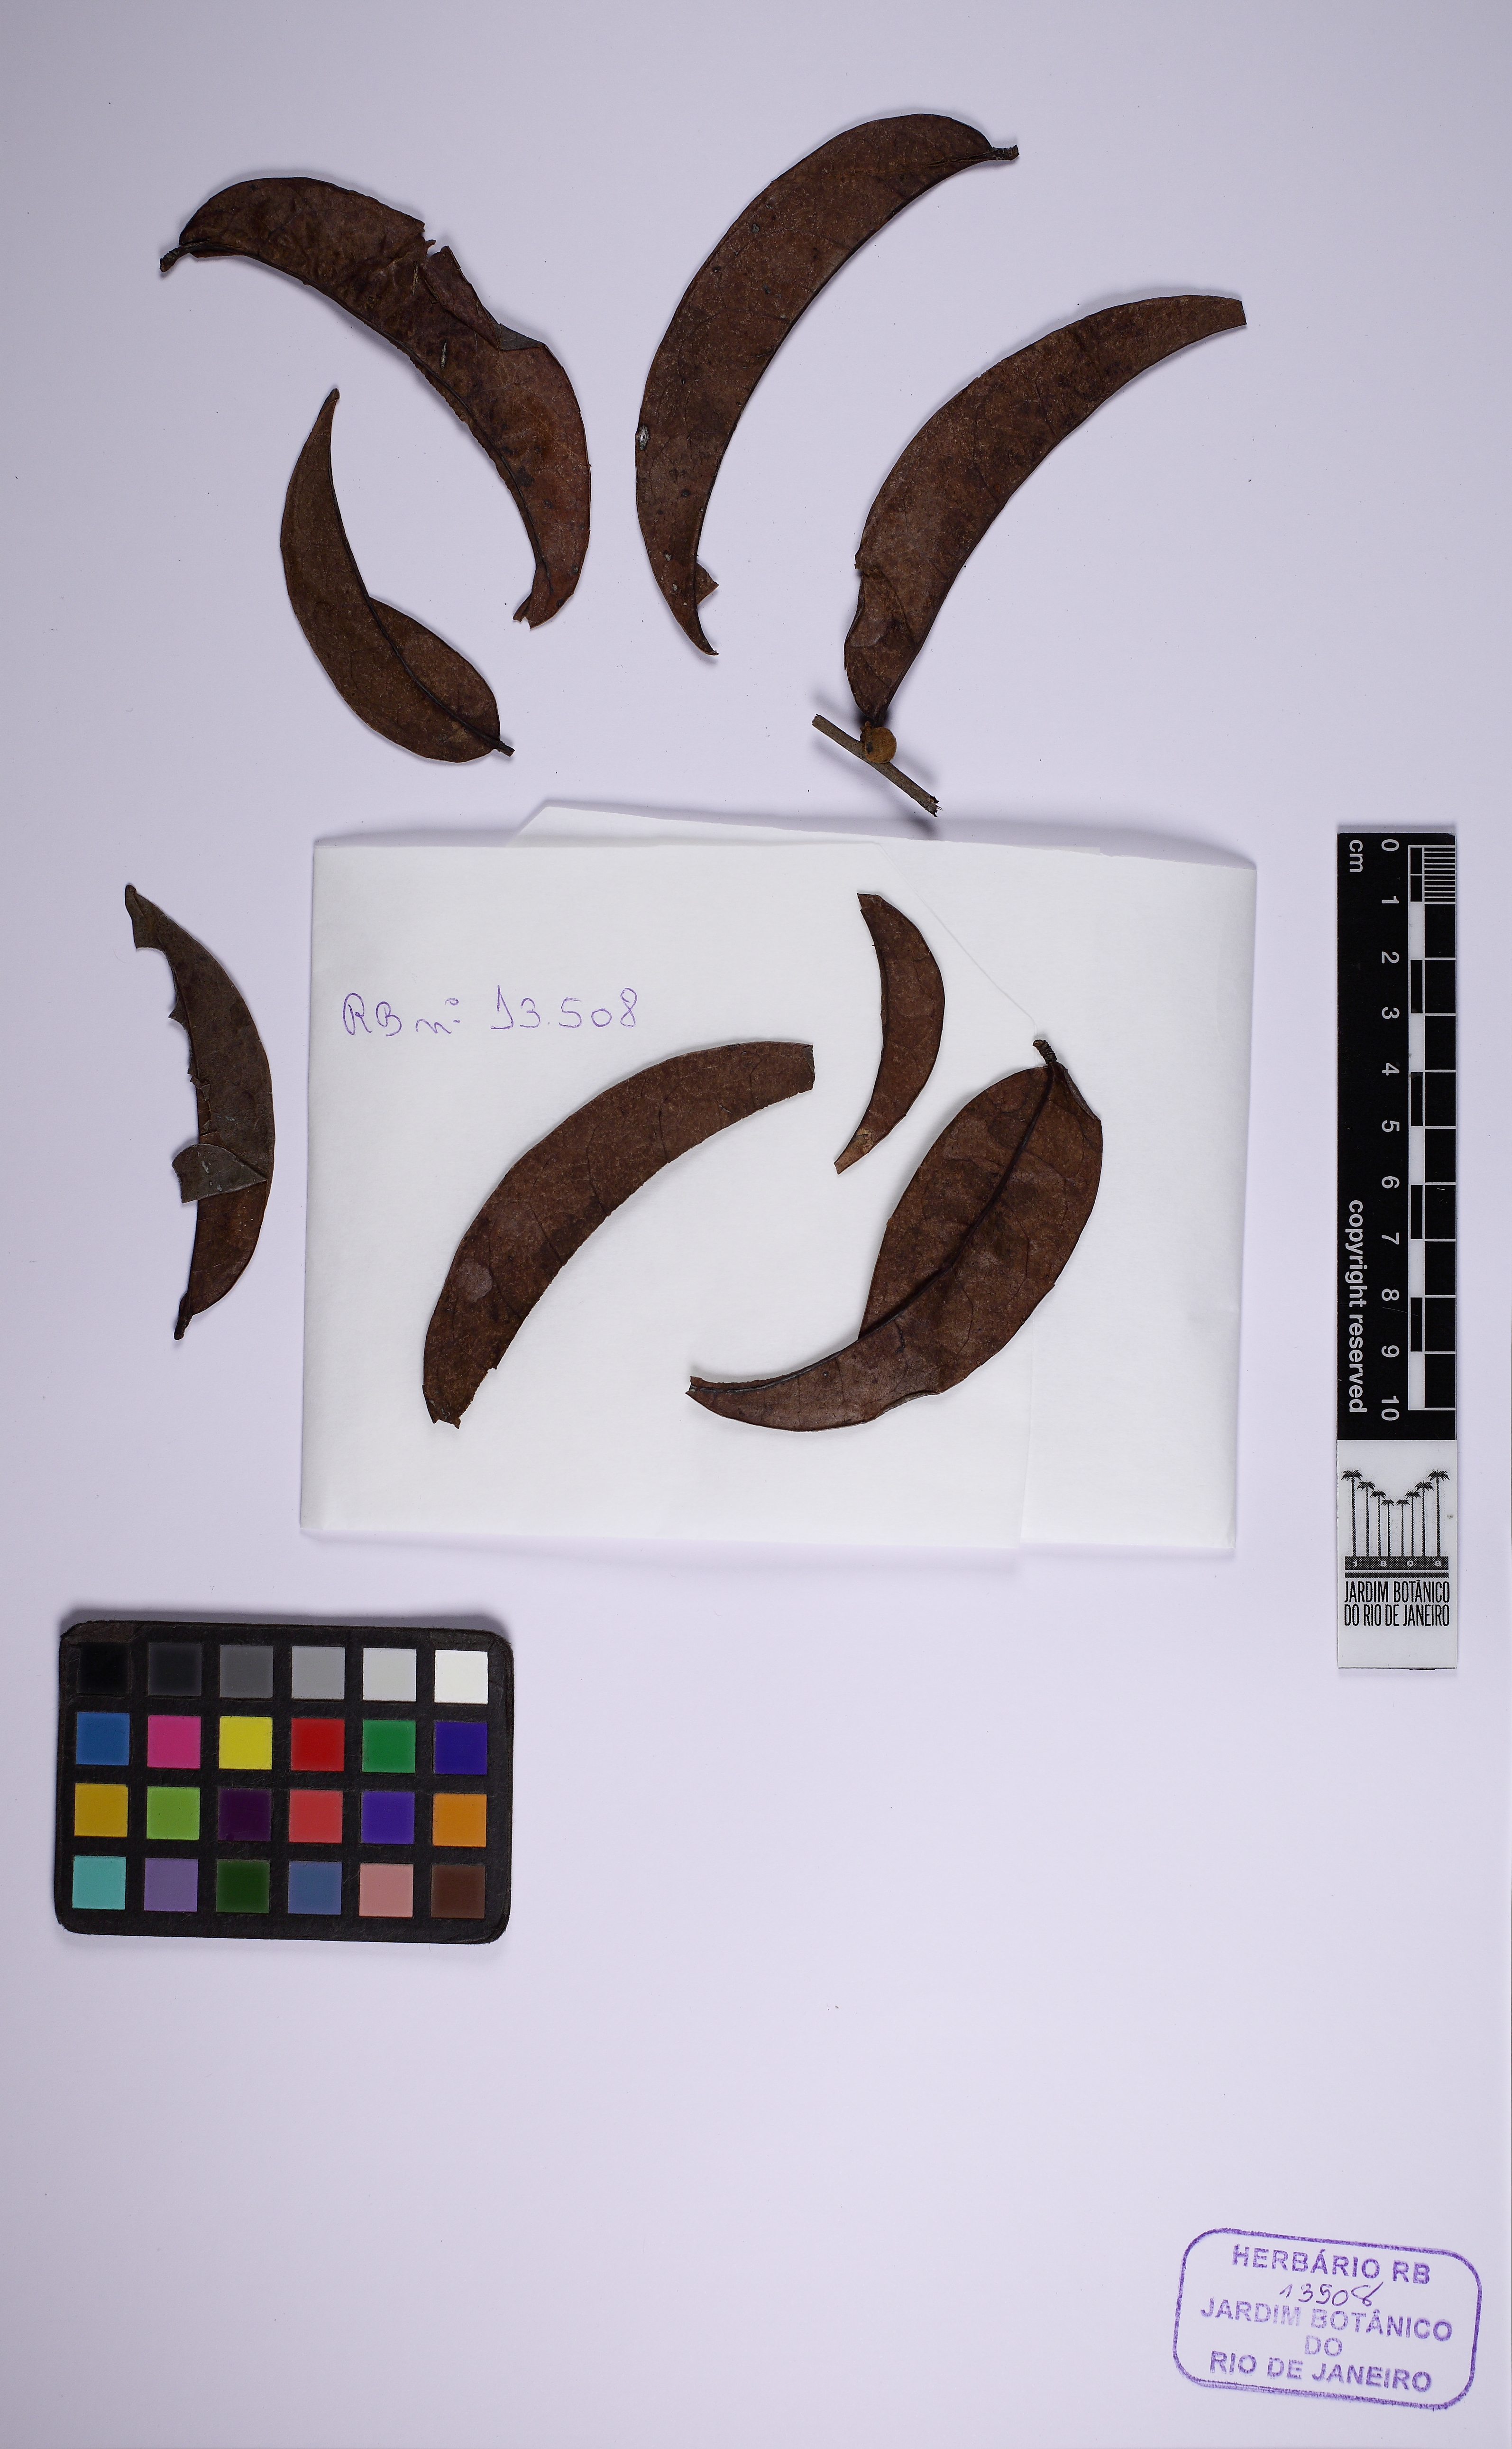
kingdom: Plantae
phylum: Tracheophyta
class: Magnoliopsida
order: Malpighiales
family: Peraceae
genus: Pera
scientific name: Pera distichophylla
